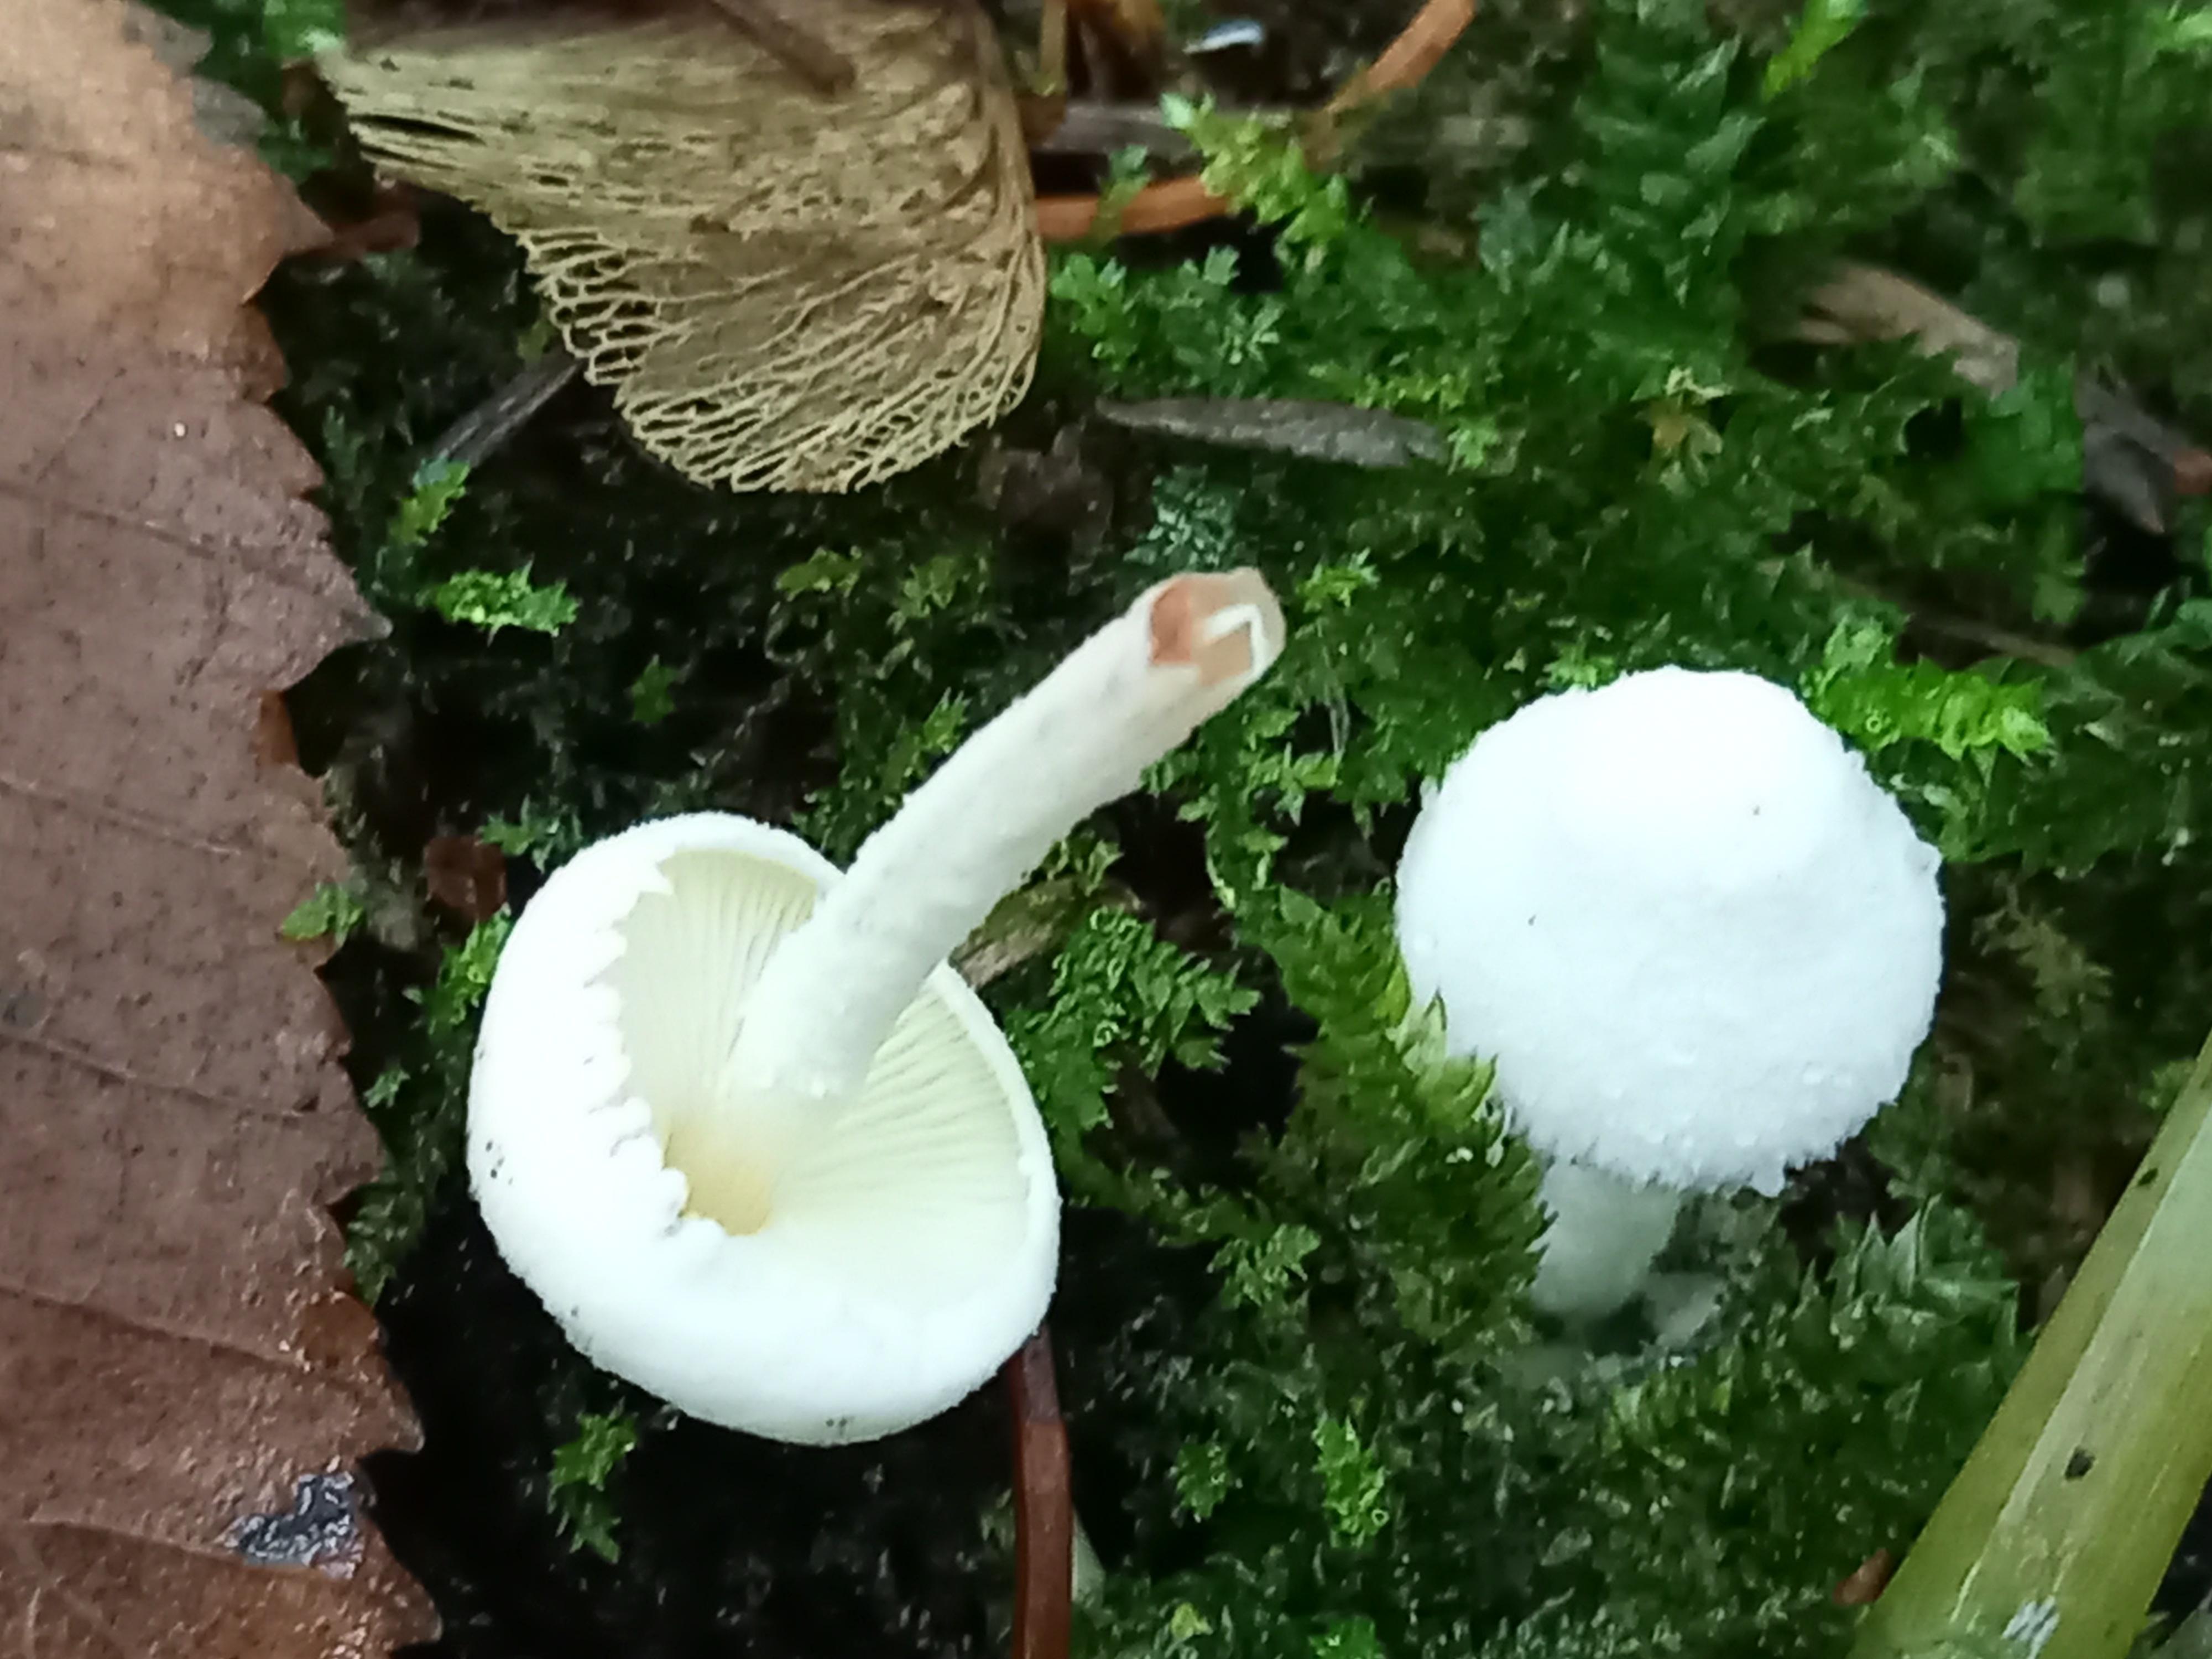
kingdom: Fungi
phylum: Basidiomycota
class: Agaricomycetes
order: Agaricales
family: Agaricaceae
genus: Cystolepiota
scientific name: Cystolepiota seminuda
